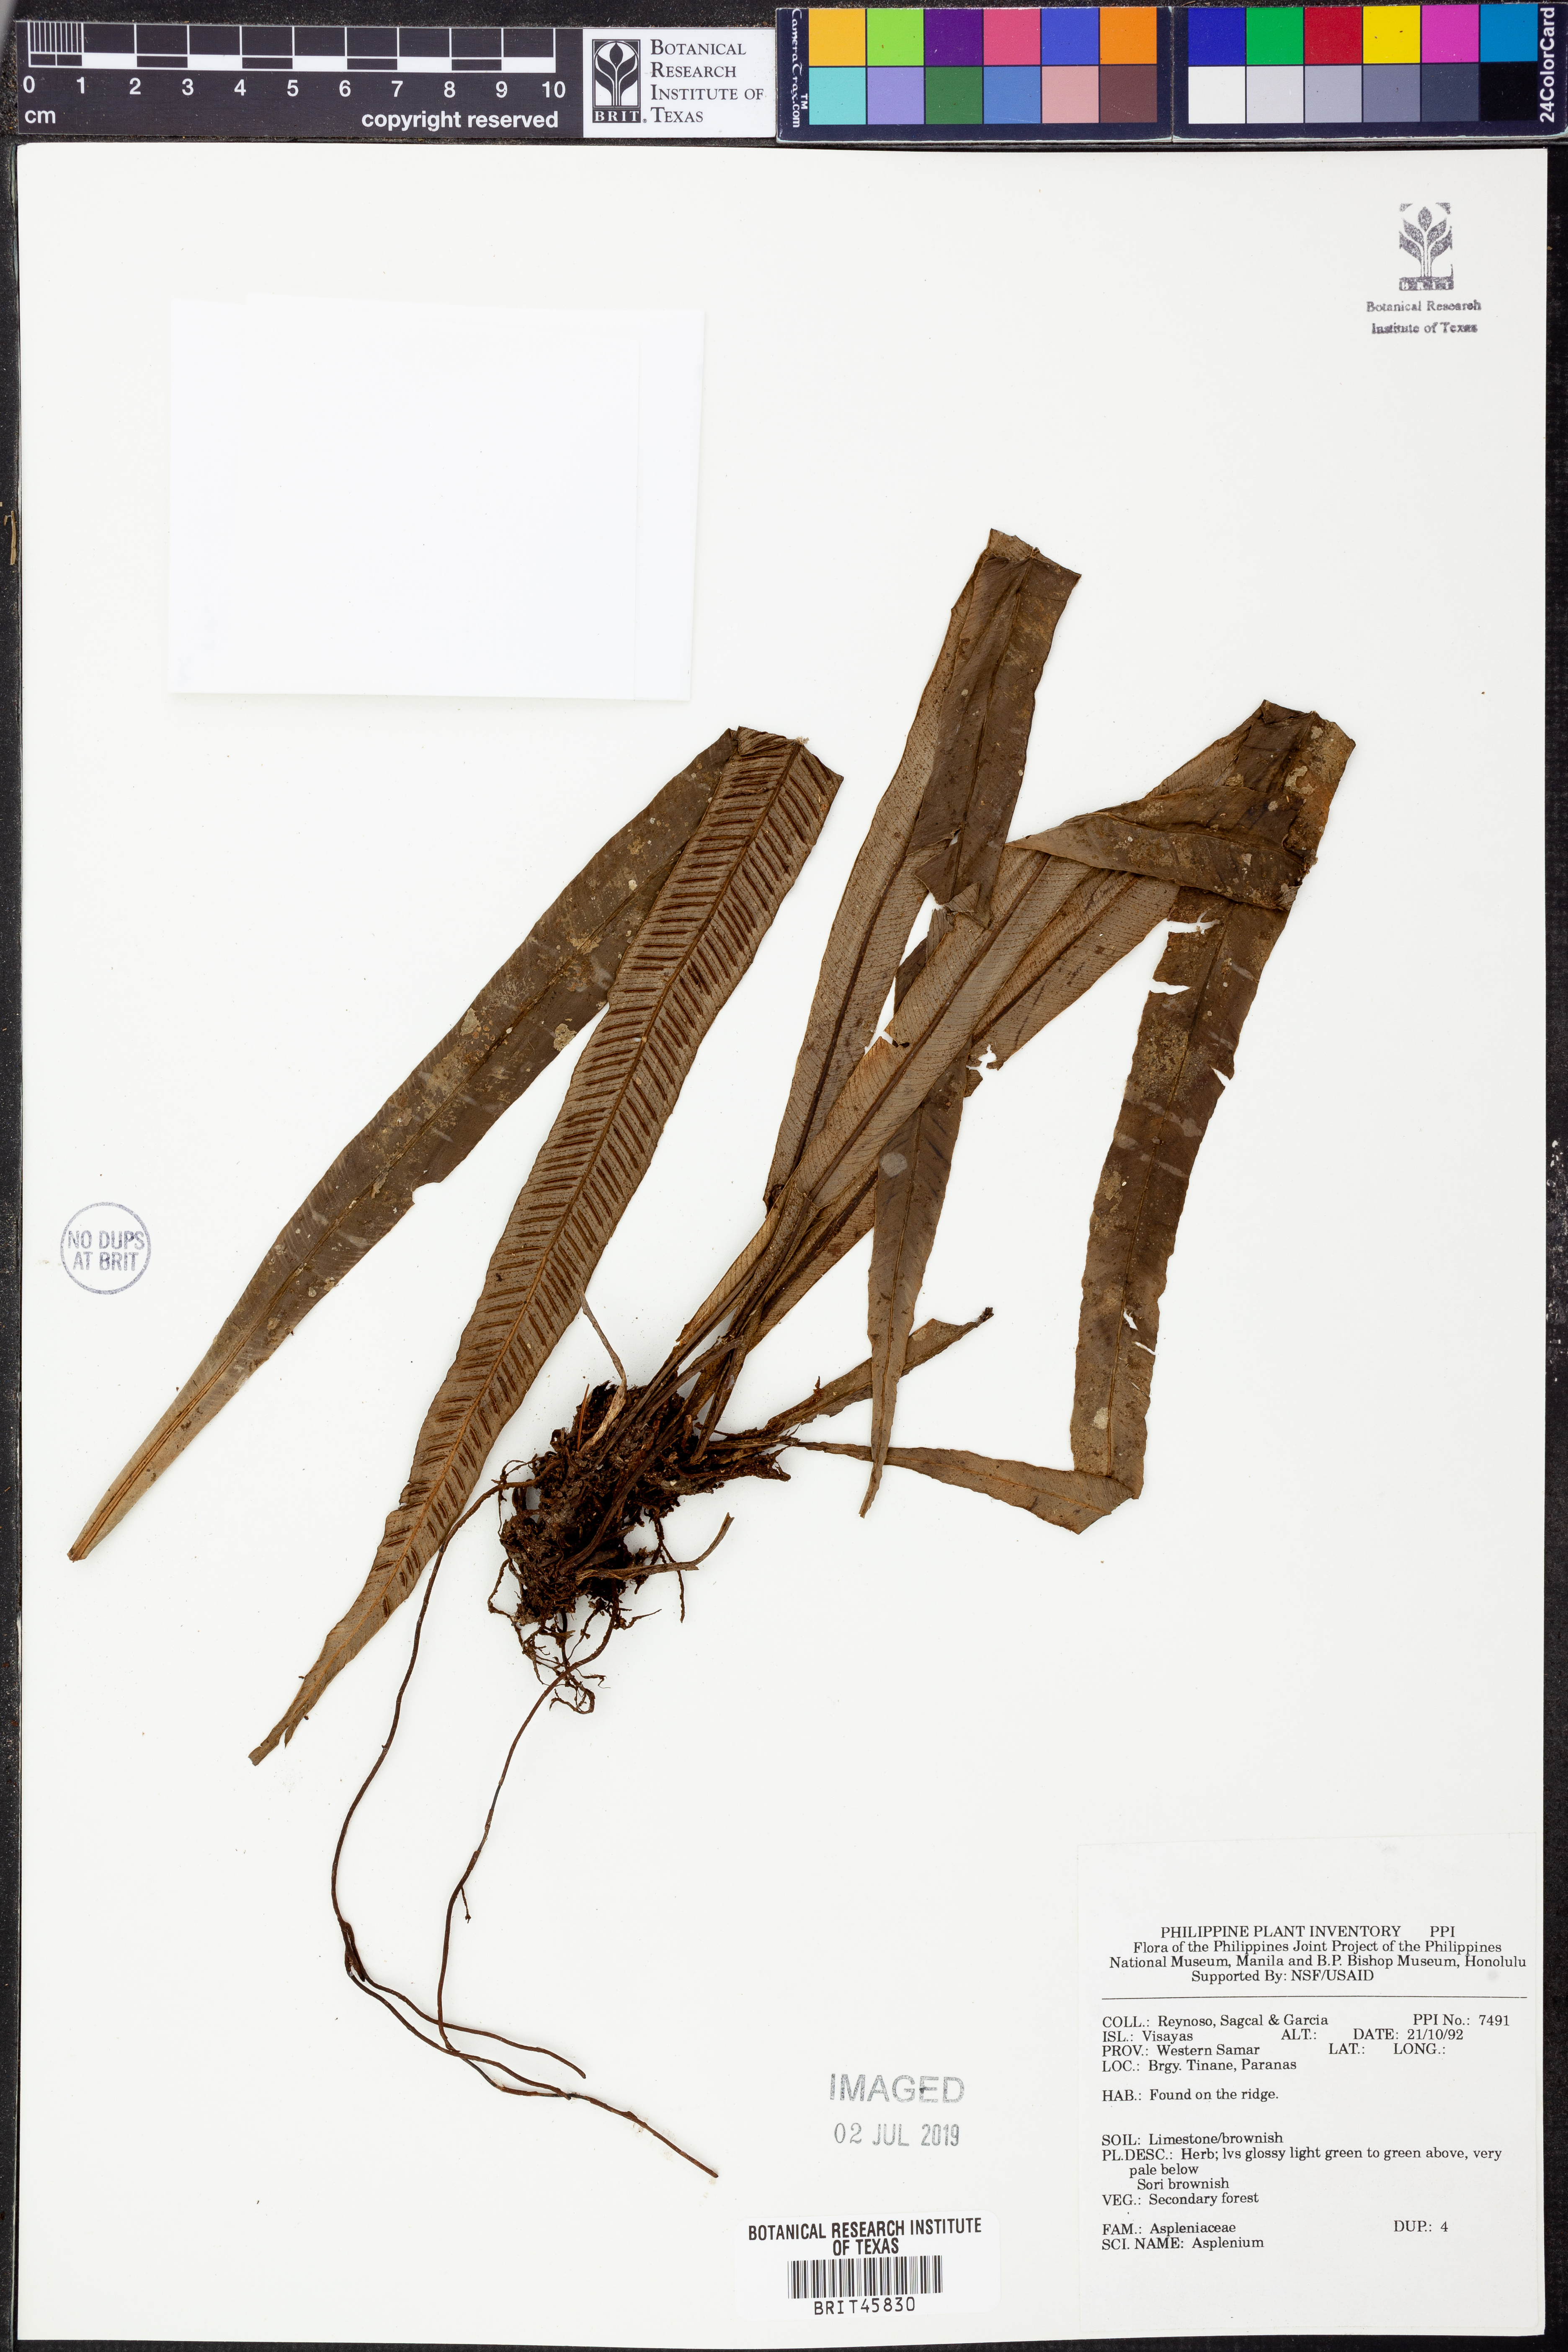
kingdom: Plantae
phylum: Tracheophyta
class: Polypodiopsida
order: Polypodiales
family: Aspleniaceae
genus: Asplenium
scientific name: Asplenium
